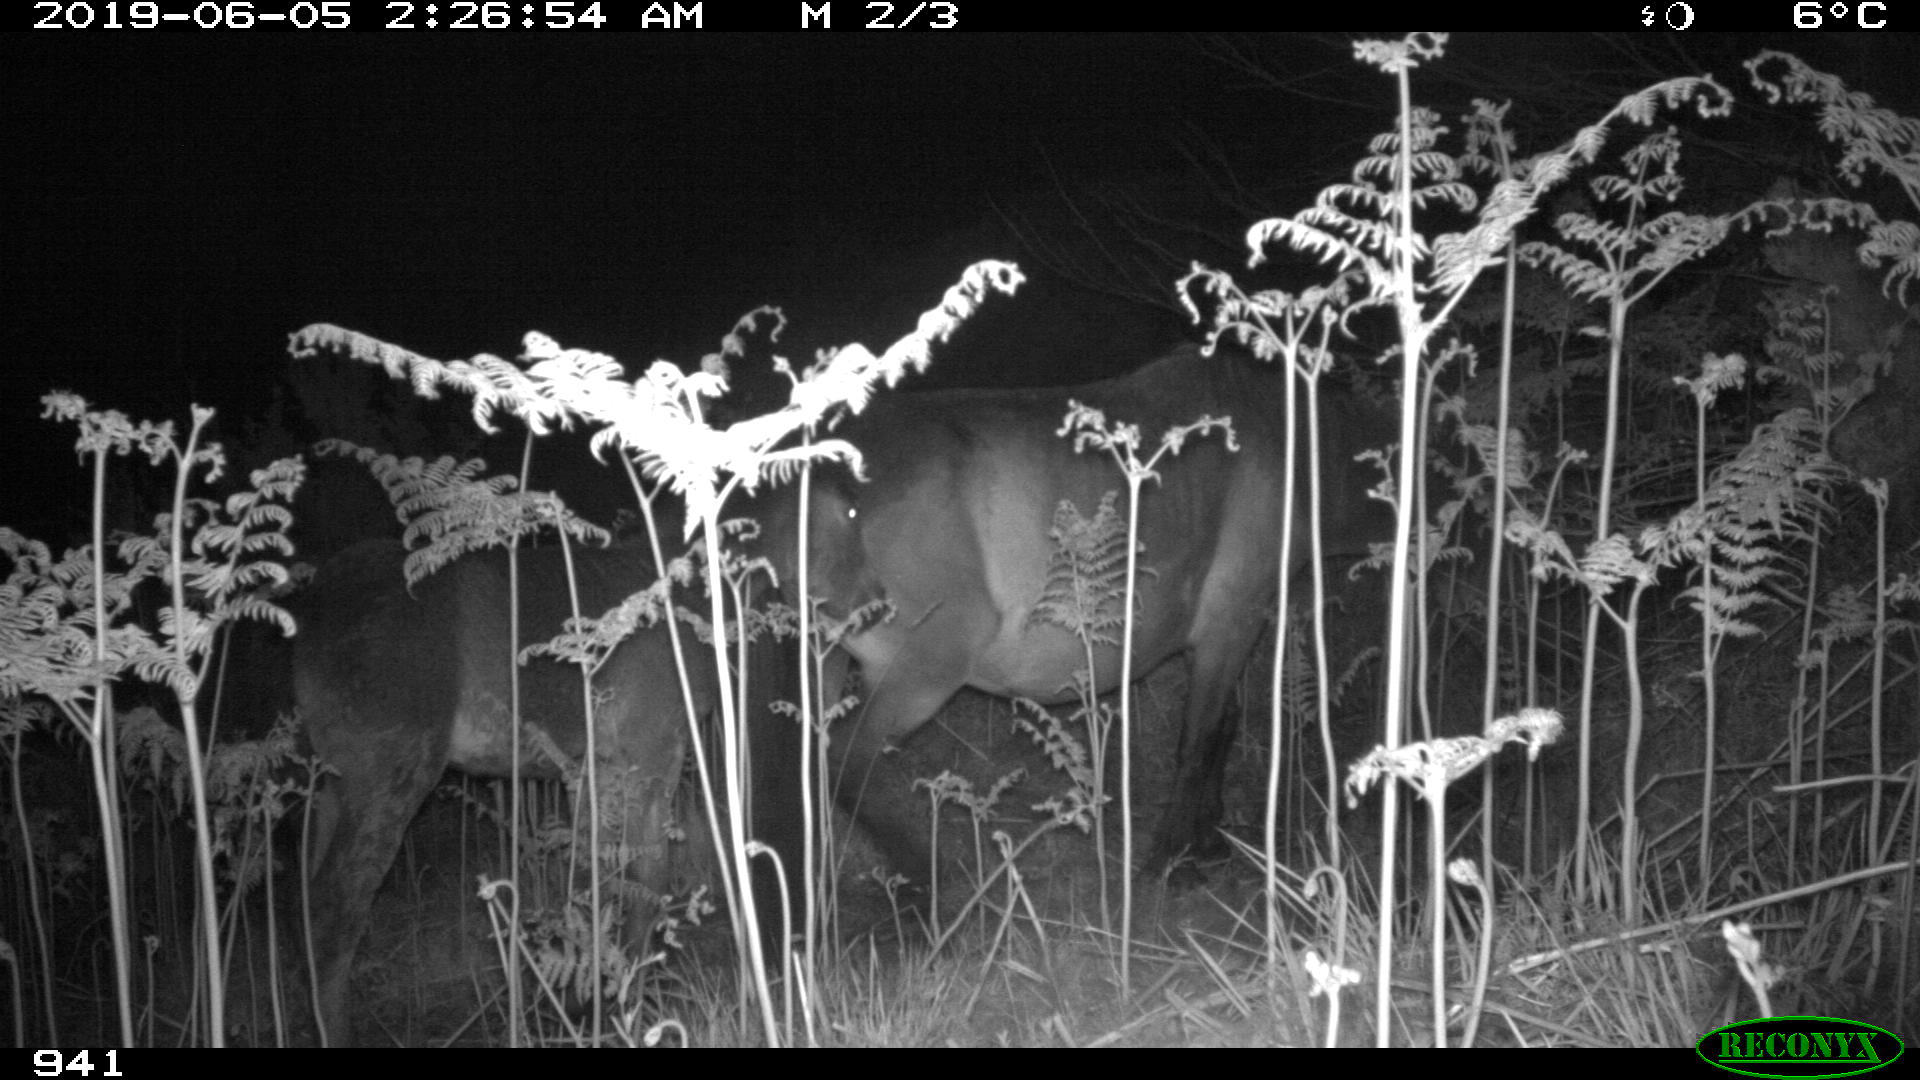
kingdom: Animalia
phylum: Chordata
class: Mammalia
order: Perissodactyla
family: Equidae
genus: Equus
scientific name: Equus caballus
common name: Horse
